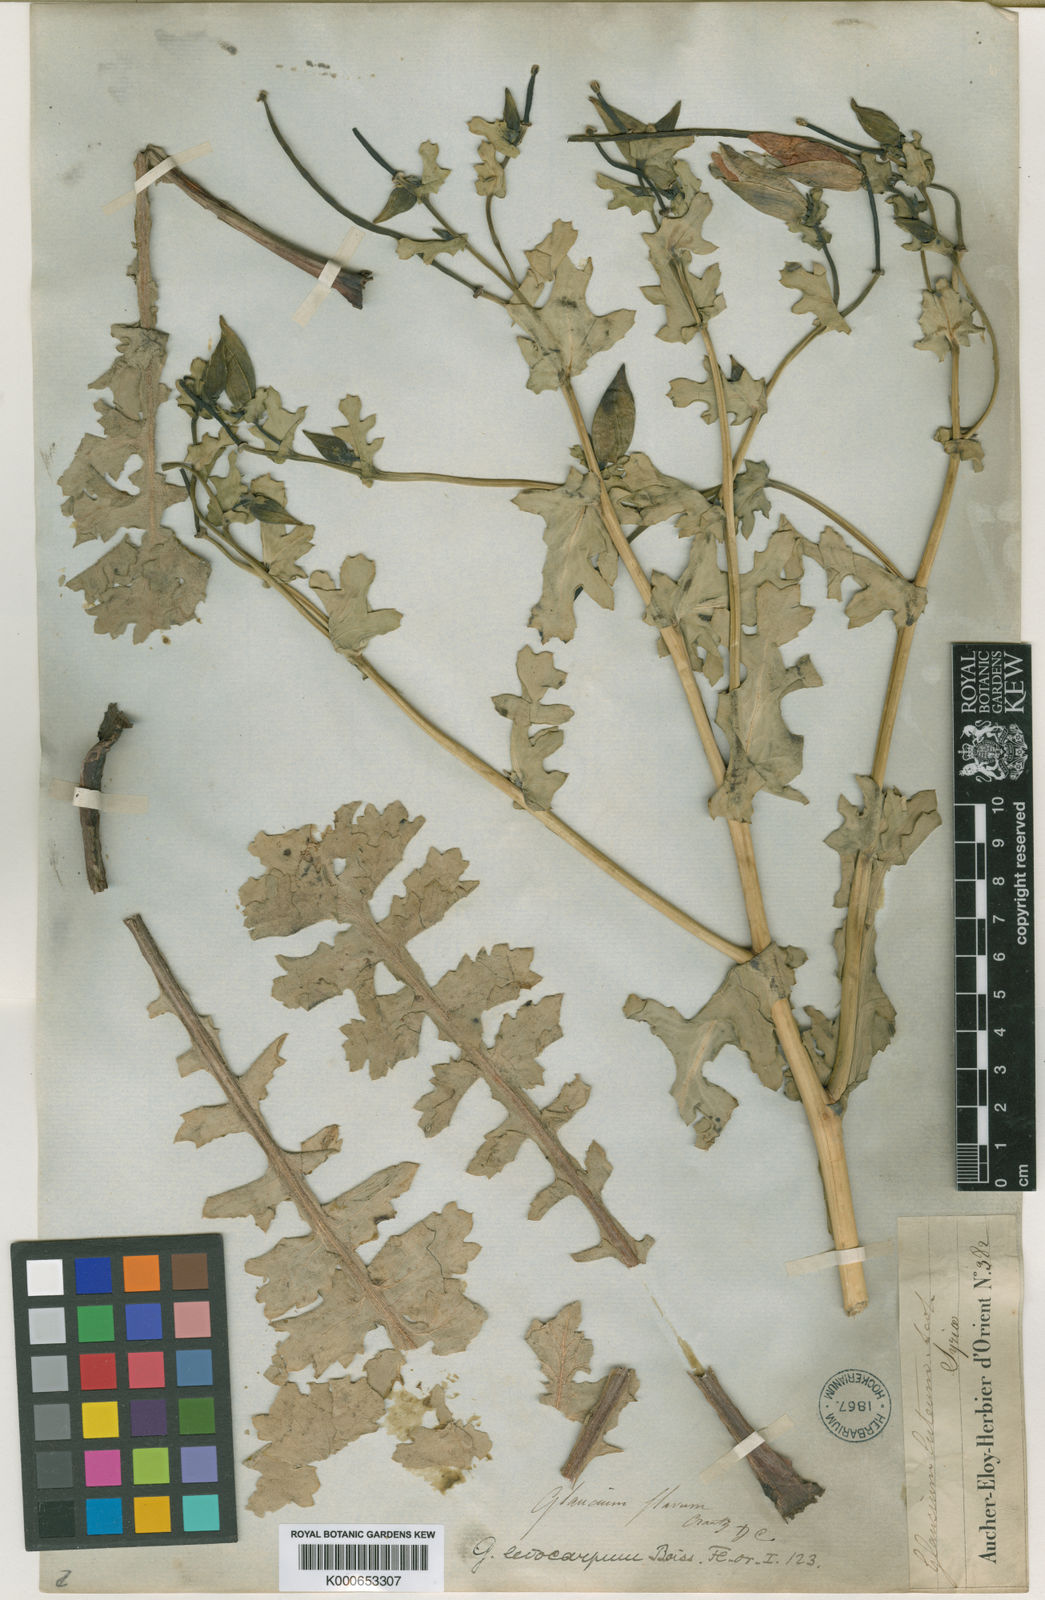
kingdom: Plantae
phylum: Tracheophyta
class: Magnoliopsida
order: Ranunculales
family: Papaveraceae
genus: Glaucium
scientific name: Glaucium oxylobum
